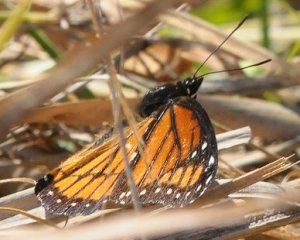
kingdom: Animalia
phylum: Arthropoda
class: Insecta
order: Lepidoptera
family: Nymphalidae
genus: Limenitis
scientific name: Limenitis archippus
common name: Viceroy
